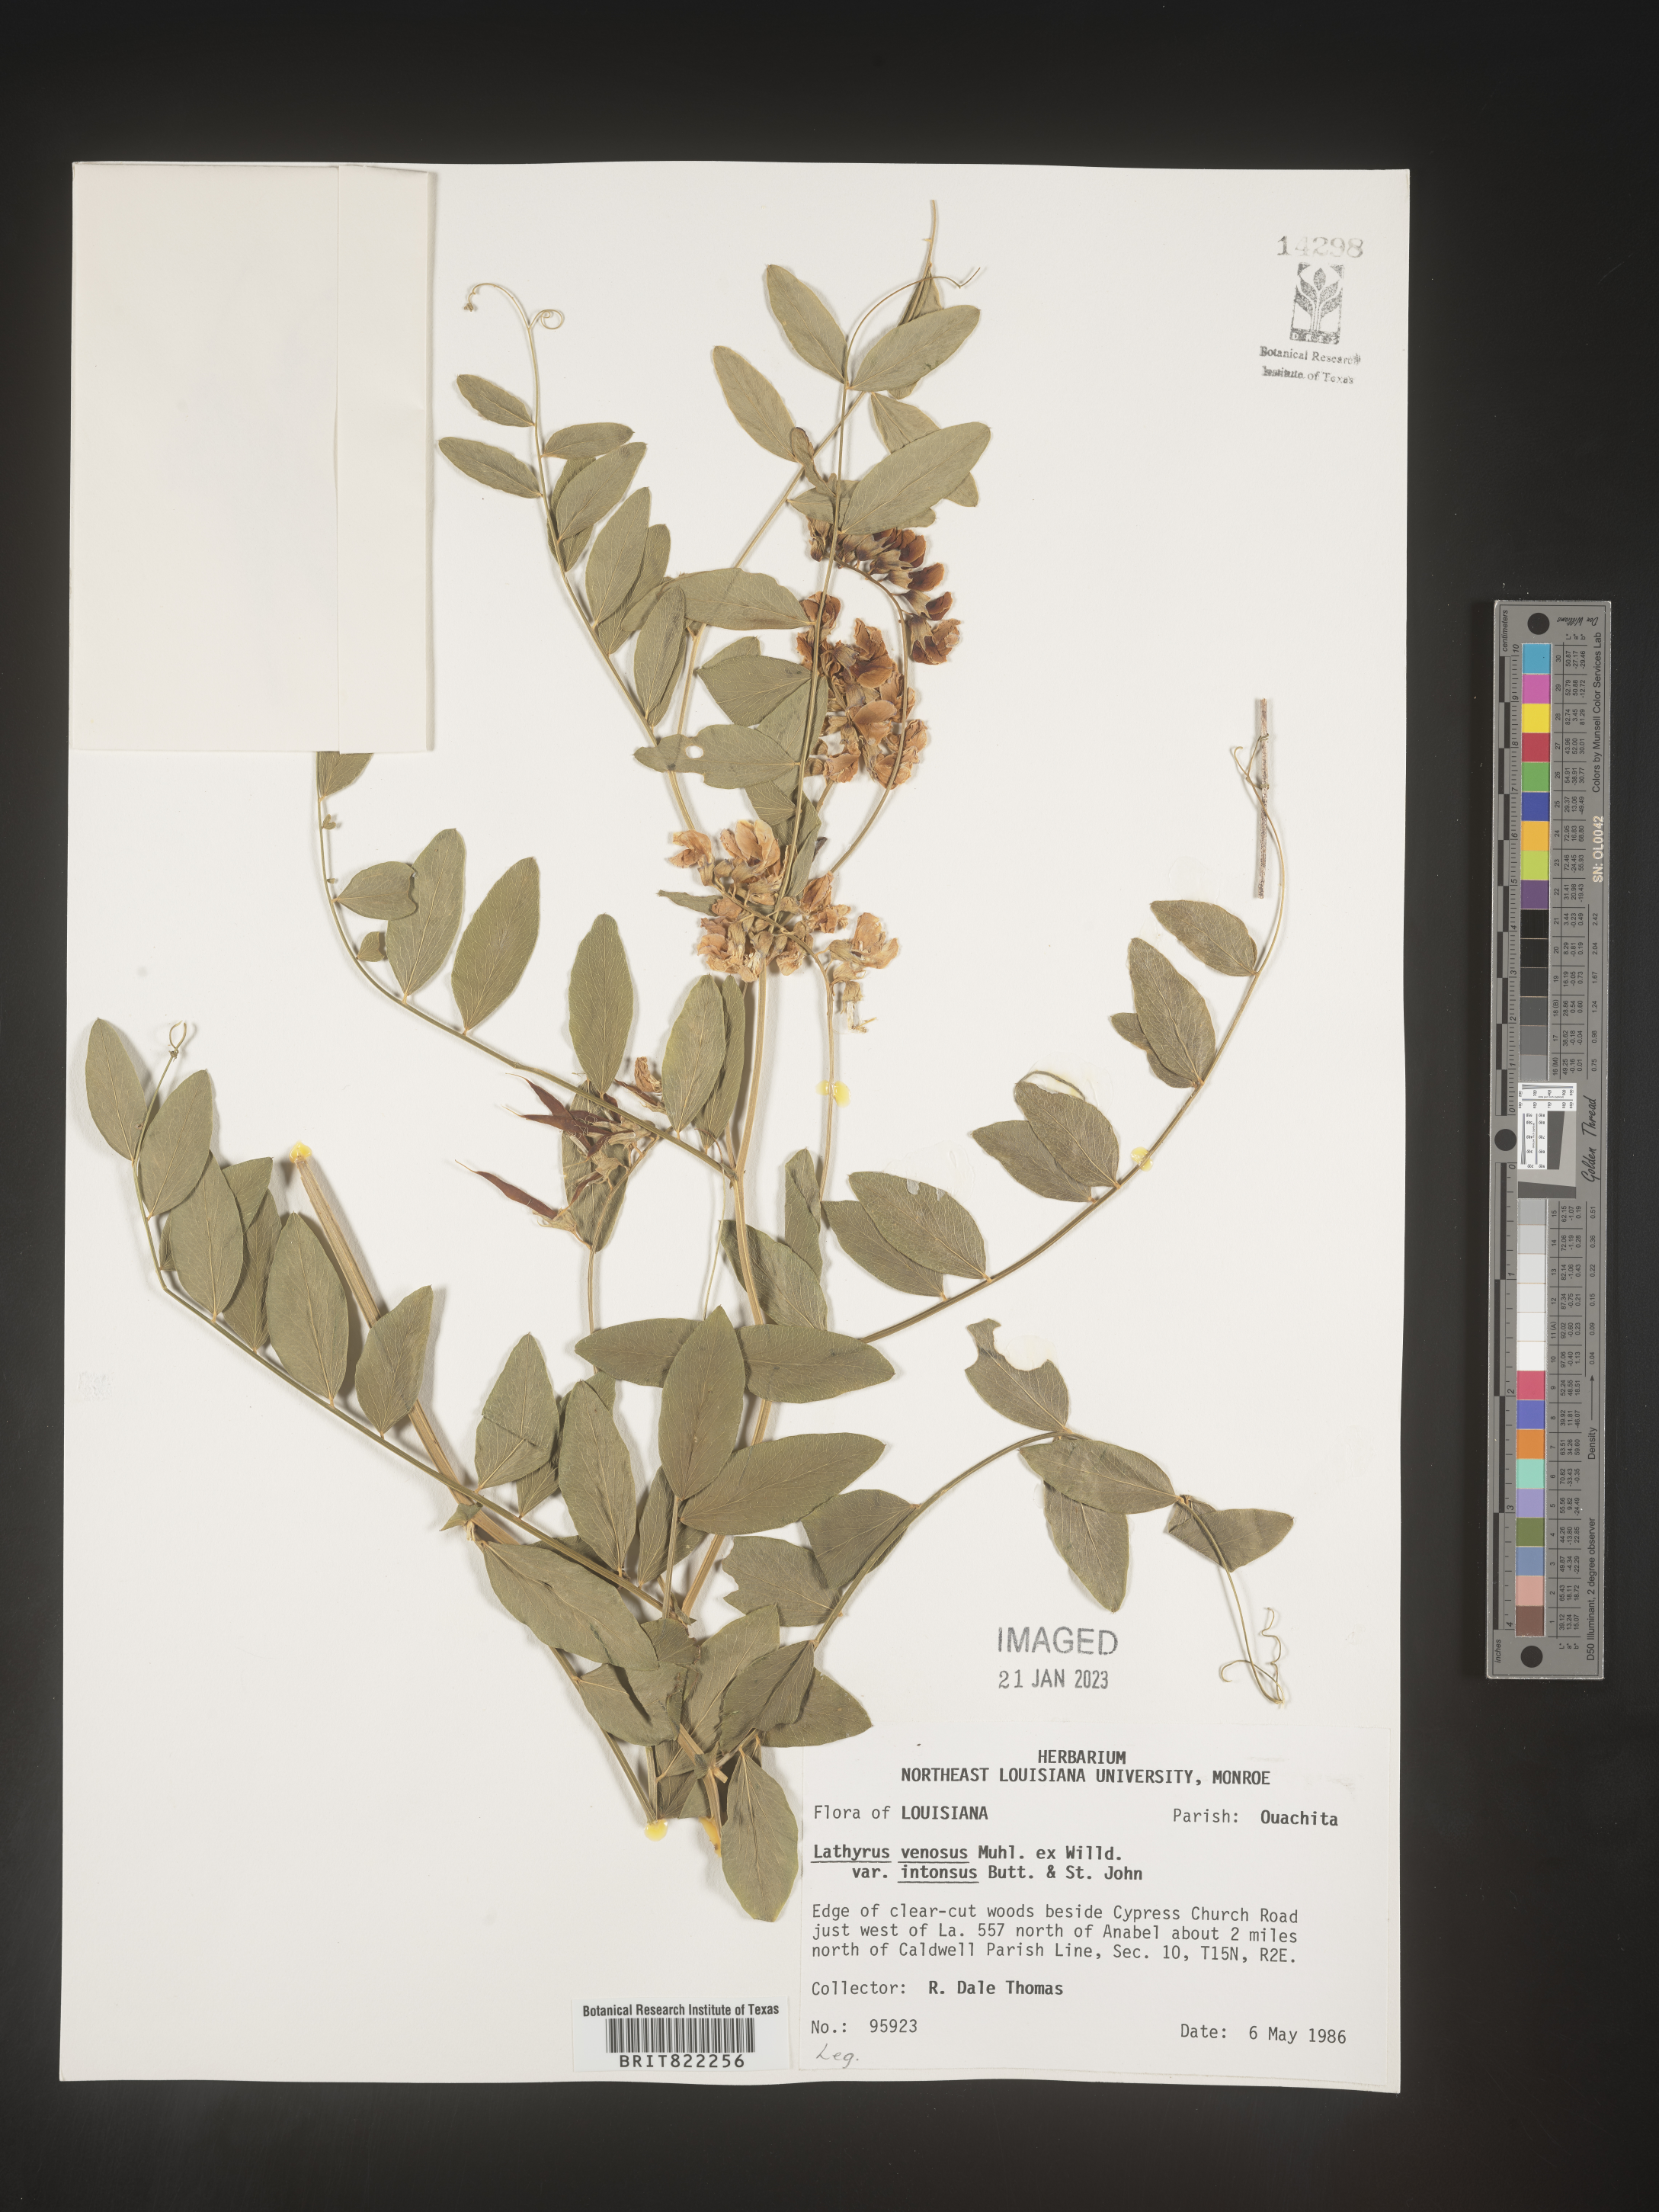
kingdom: Plantae
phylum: Tracheophyta
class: Magnoliopsida
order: Fabales
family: Fabaceae
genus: Lathyrus
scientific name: Lathyrus venosus
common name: Forest-pea
